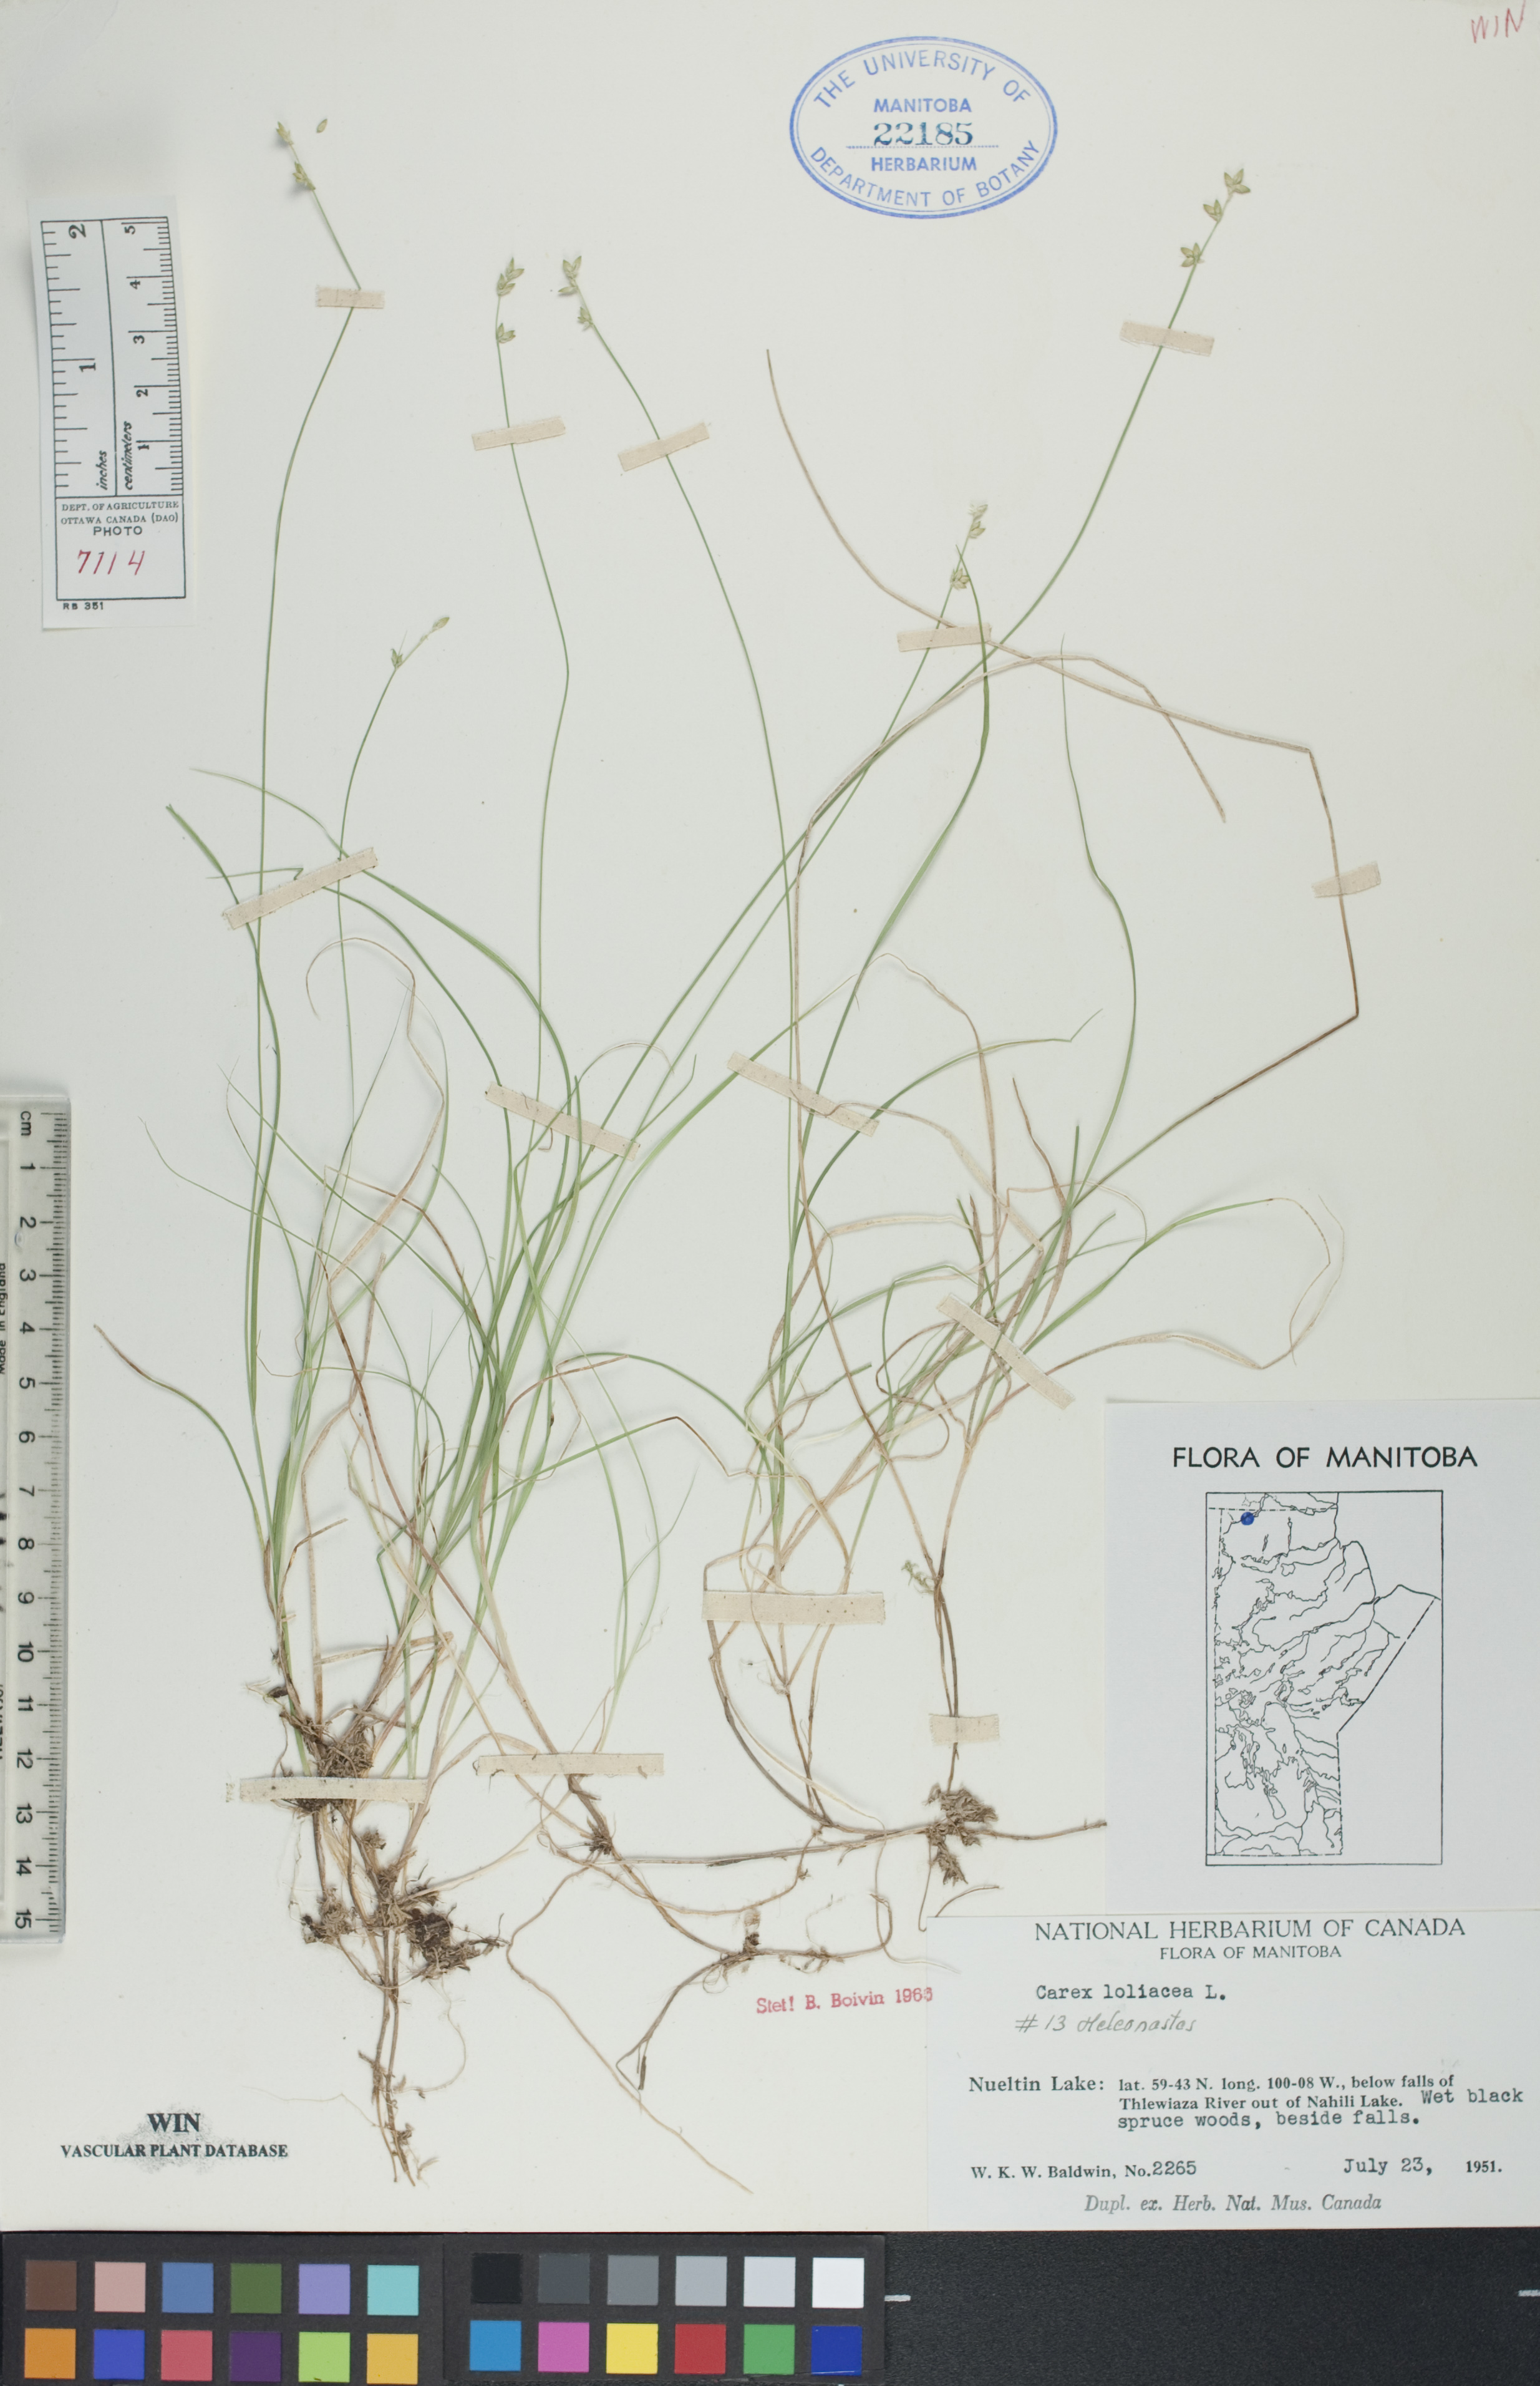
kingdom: Plantae
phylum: Tracheophyta
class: Liliopsida
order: Poales
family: Cyperaceae
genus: Carex
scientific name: Carex loliacea
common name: Ryegrass sedge
